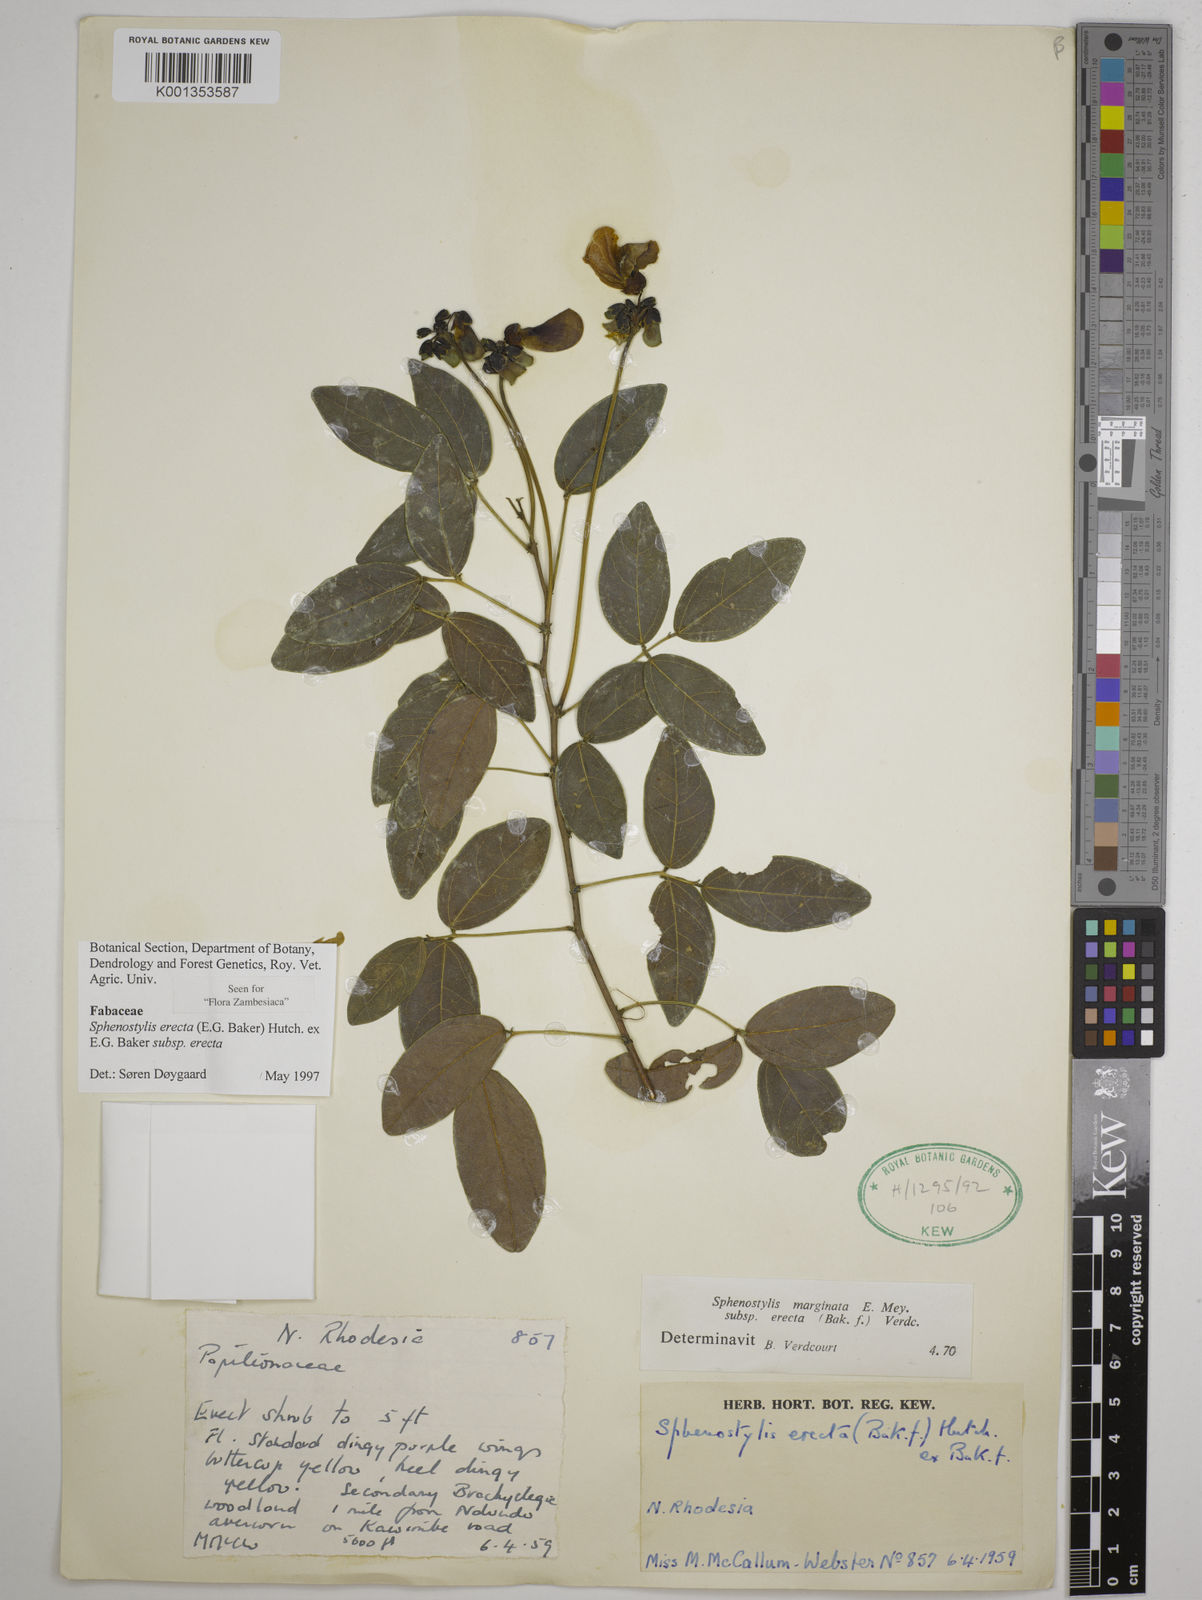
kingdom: Plantae
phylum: Tracheophyta
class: Magnoliopsida
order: Fabales
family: Fabaceae
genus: Sphenostylis
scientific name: Sphenostylis erecta
